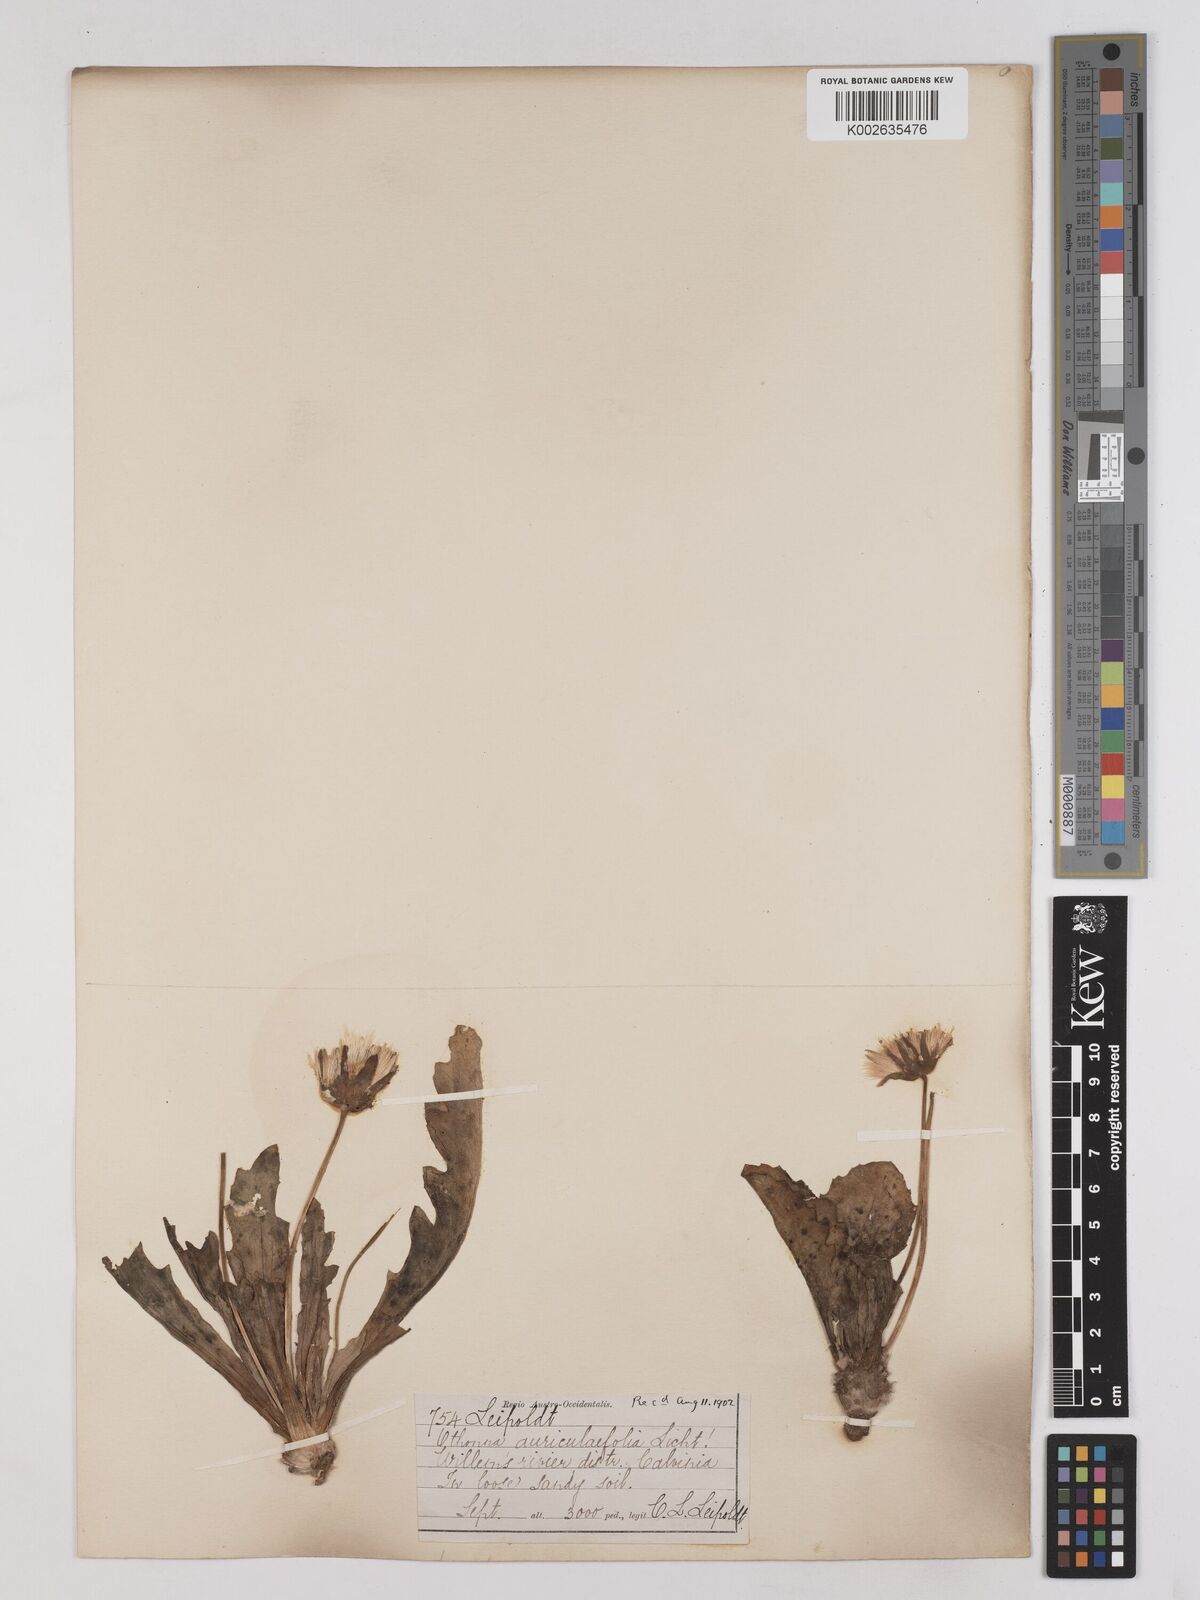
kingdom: Plantae
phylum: Tracheophyta
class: Magnoliopsida
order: Asterales
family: Asteraceae
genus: Othonna
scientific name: Othonna auriculifolia
